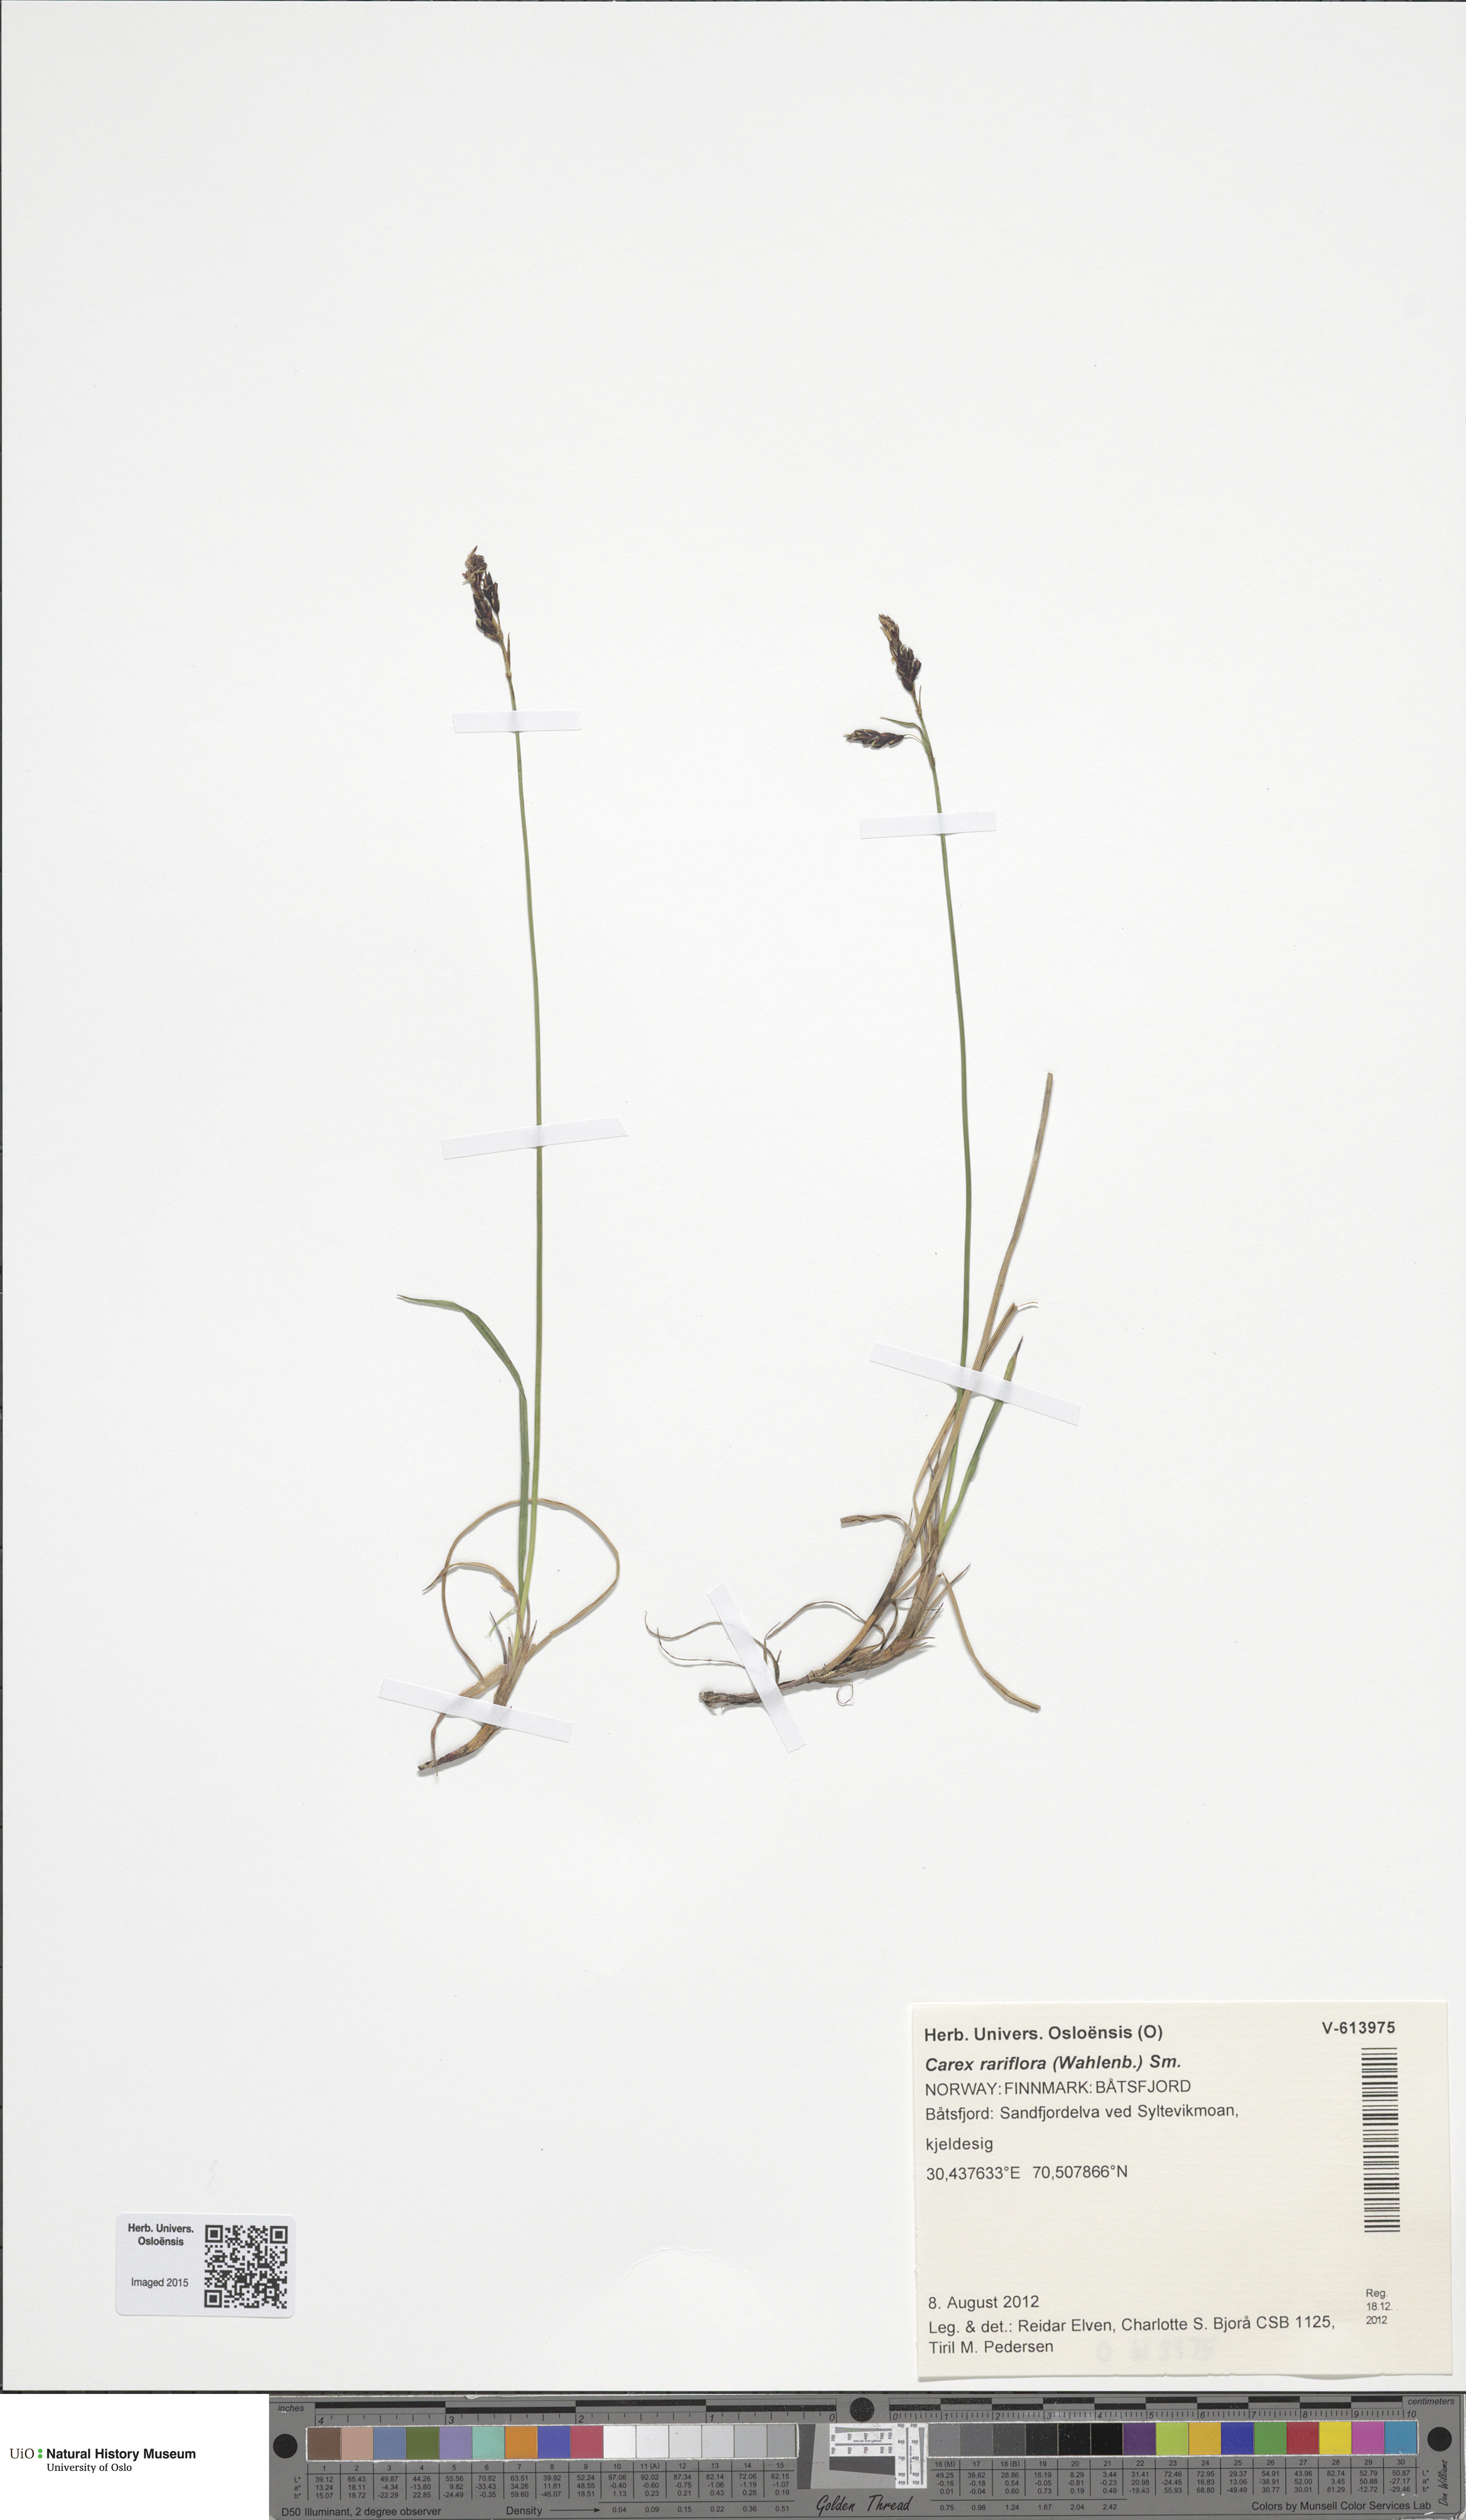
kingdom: Plantae
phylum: Tracheophyta
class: Liliopsida
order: Poales
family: Cyperaceae
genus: Carex
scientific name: Carex rariflora
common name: Loose-flowered alpine sedge
